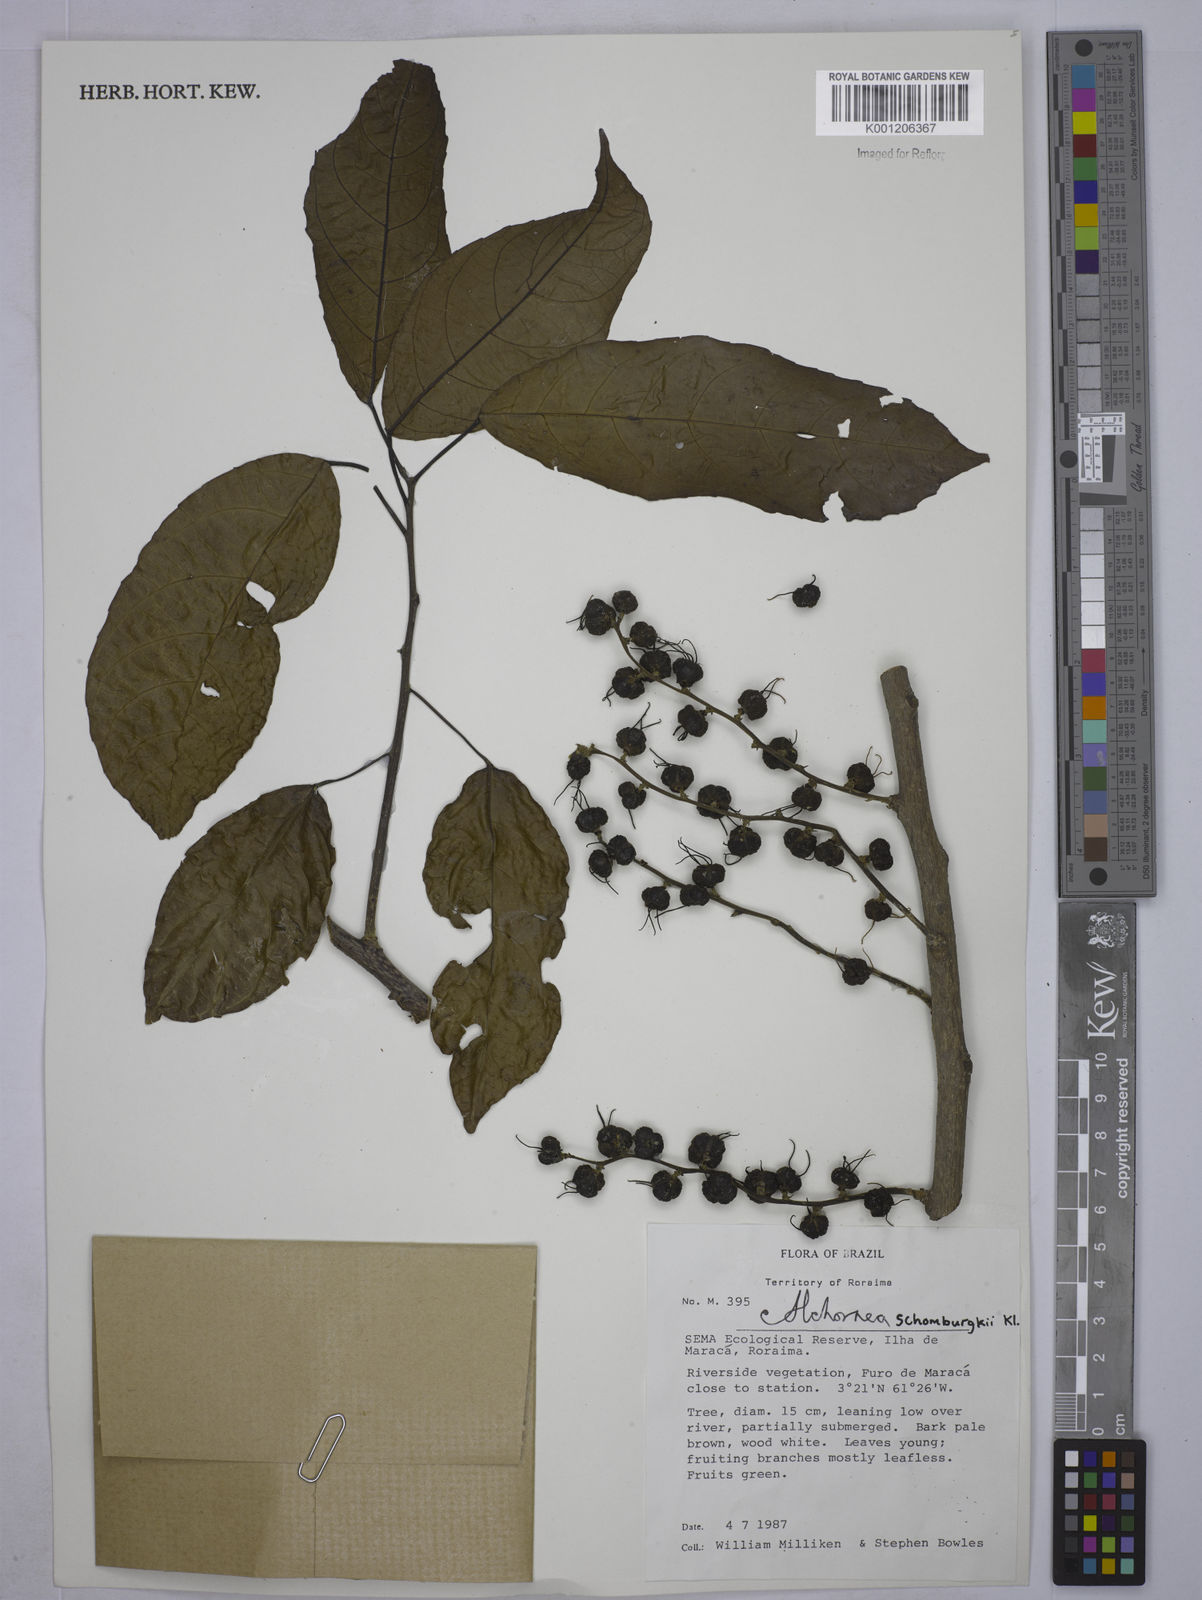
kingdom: Plantae
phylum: Tracheophyta
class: Magnoliopsida
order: Malpighiales
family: Euphorbiaceae
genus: Alchornea
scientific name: Alchornea discolor
